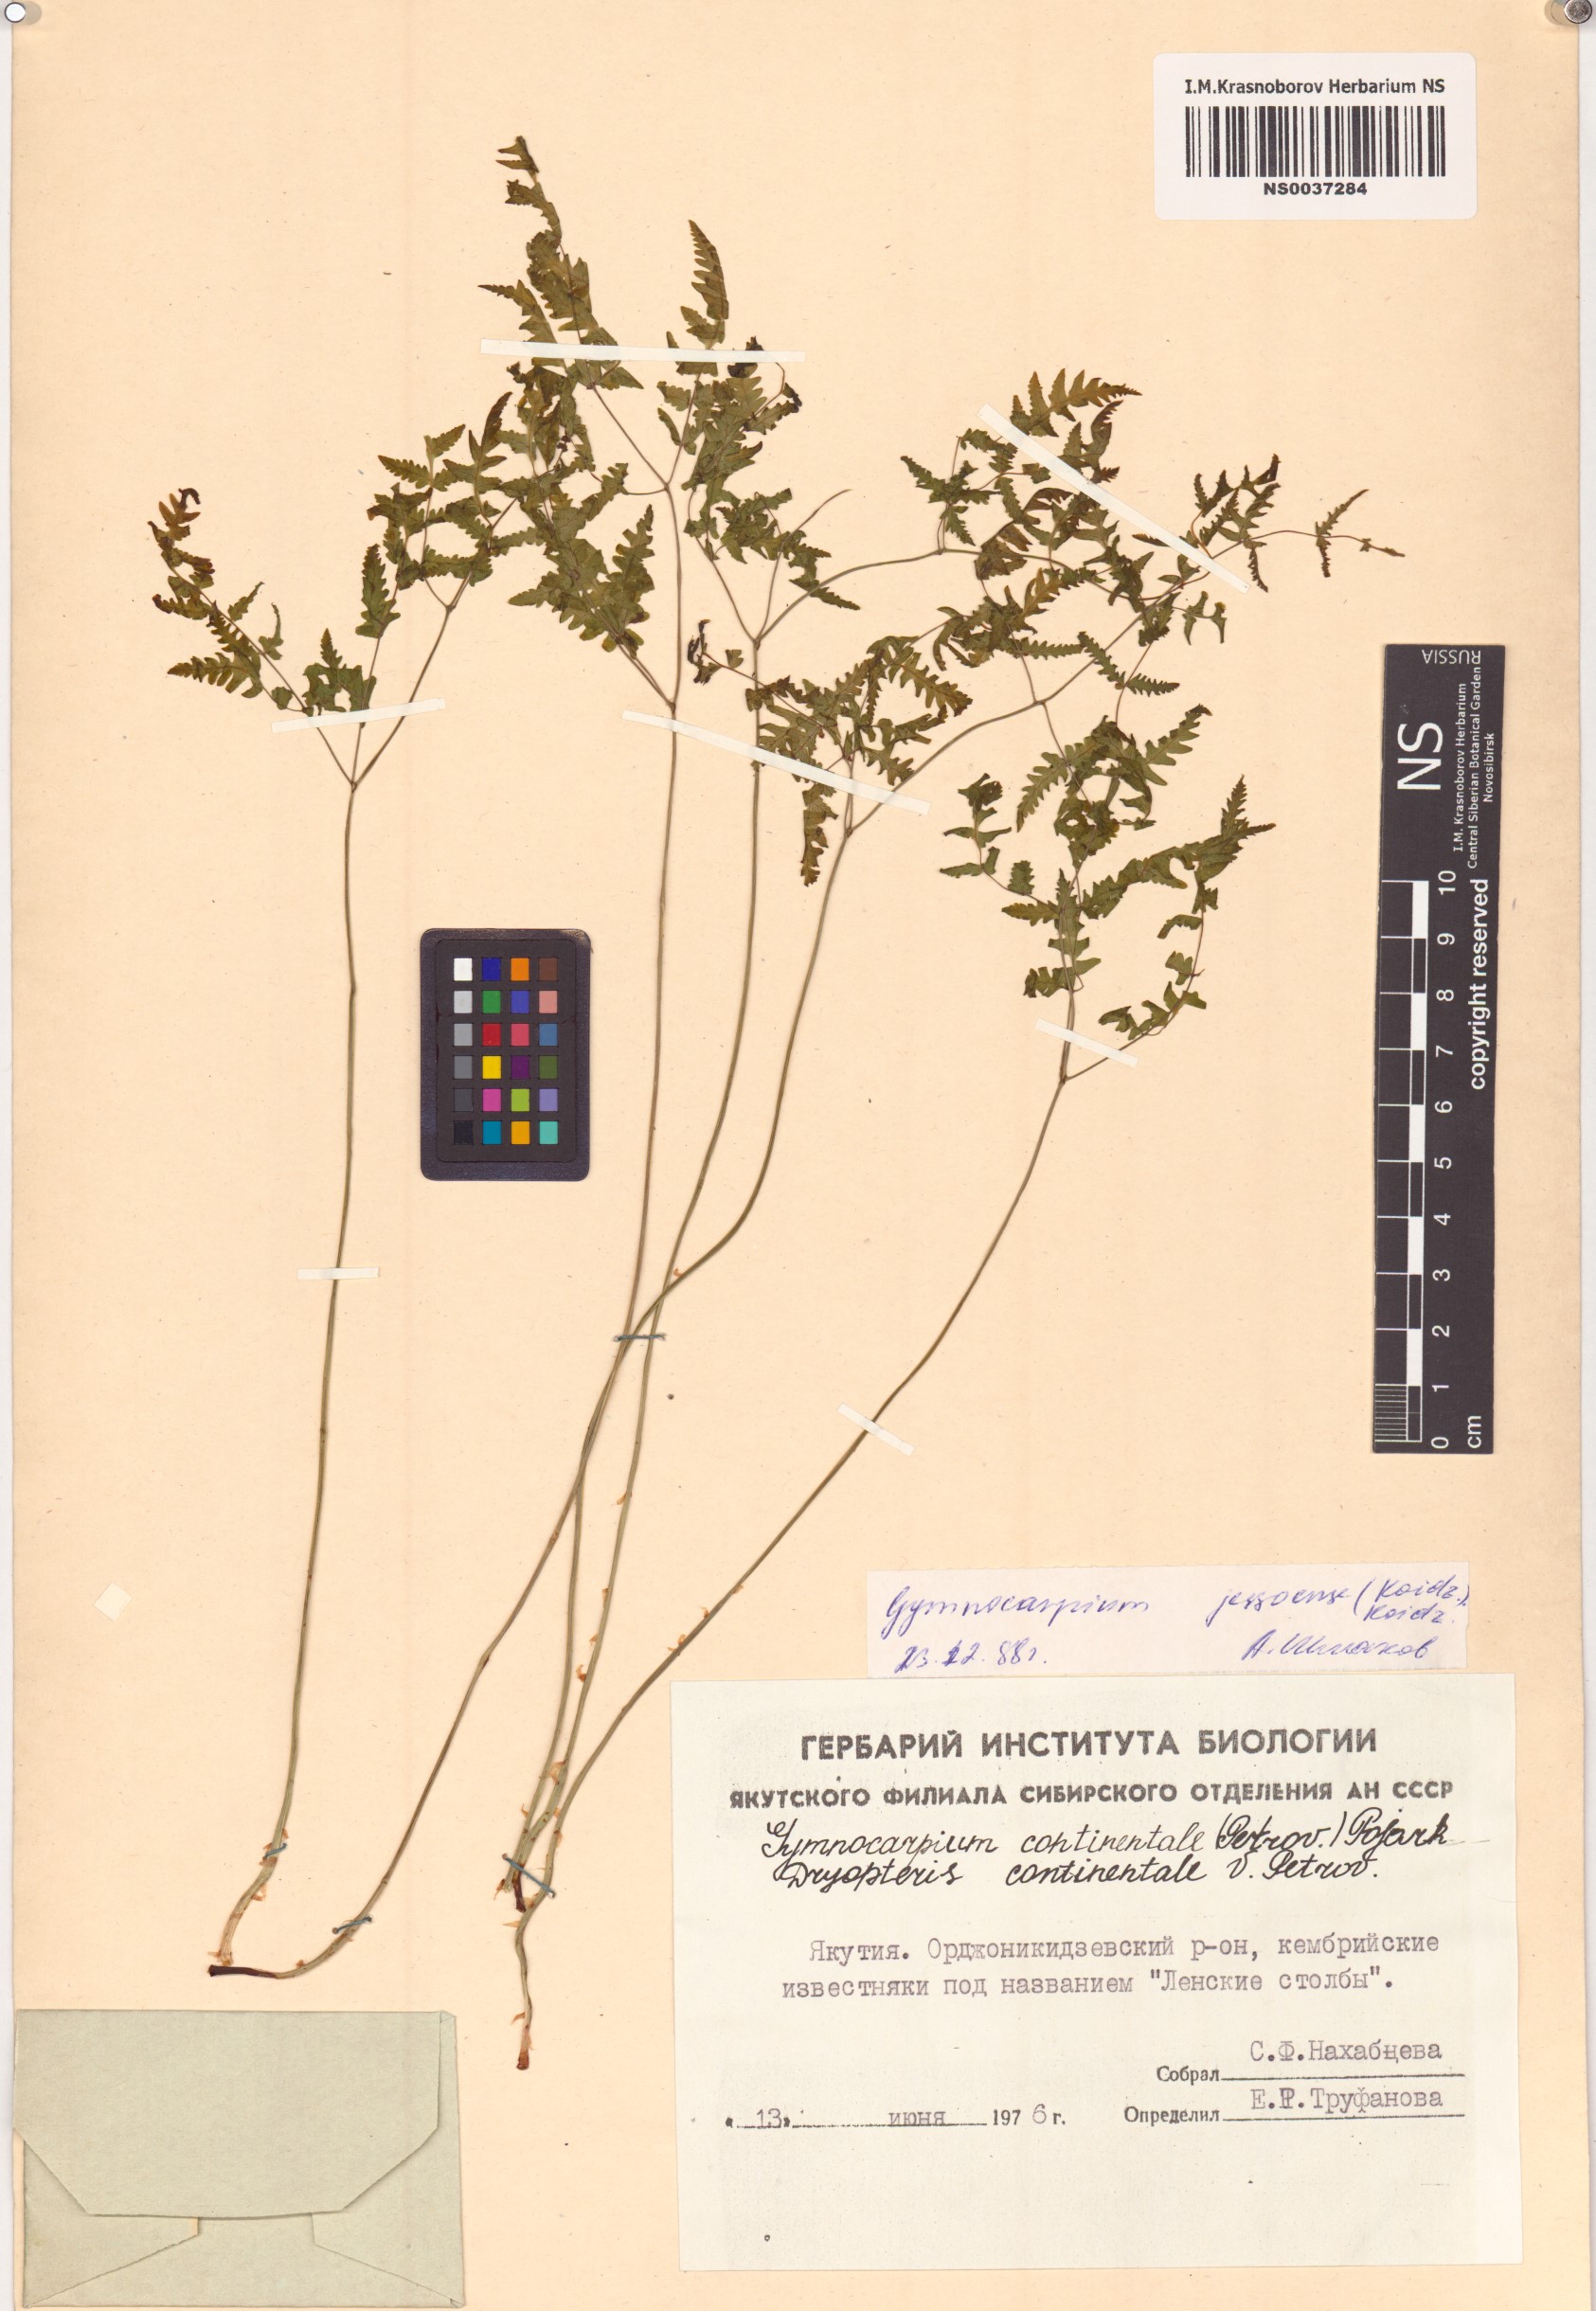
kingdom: Plantae
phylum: Tracheophyta
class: Polypodiopsida
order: Polypodiales
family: Cystopteridaceae
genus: Gymnocarpium
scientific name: Gymnocarpium jessoense
